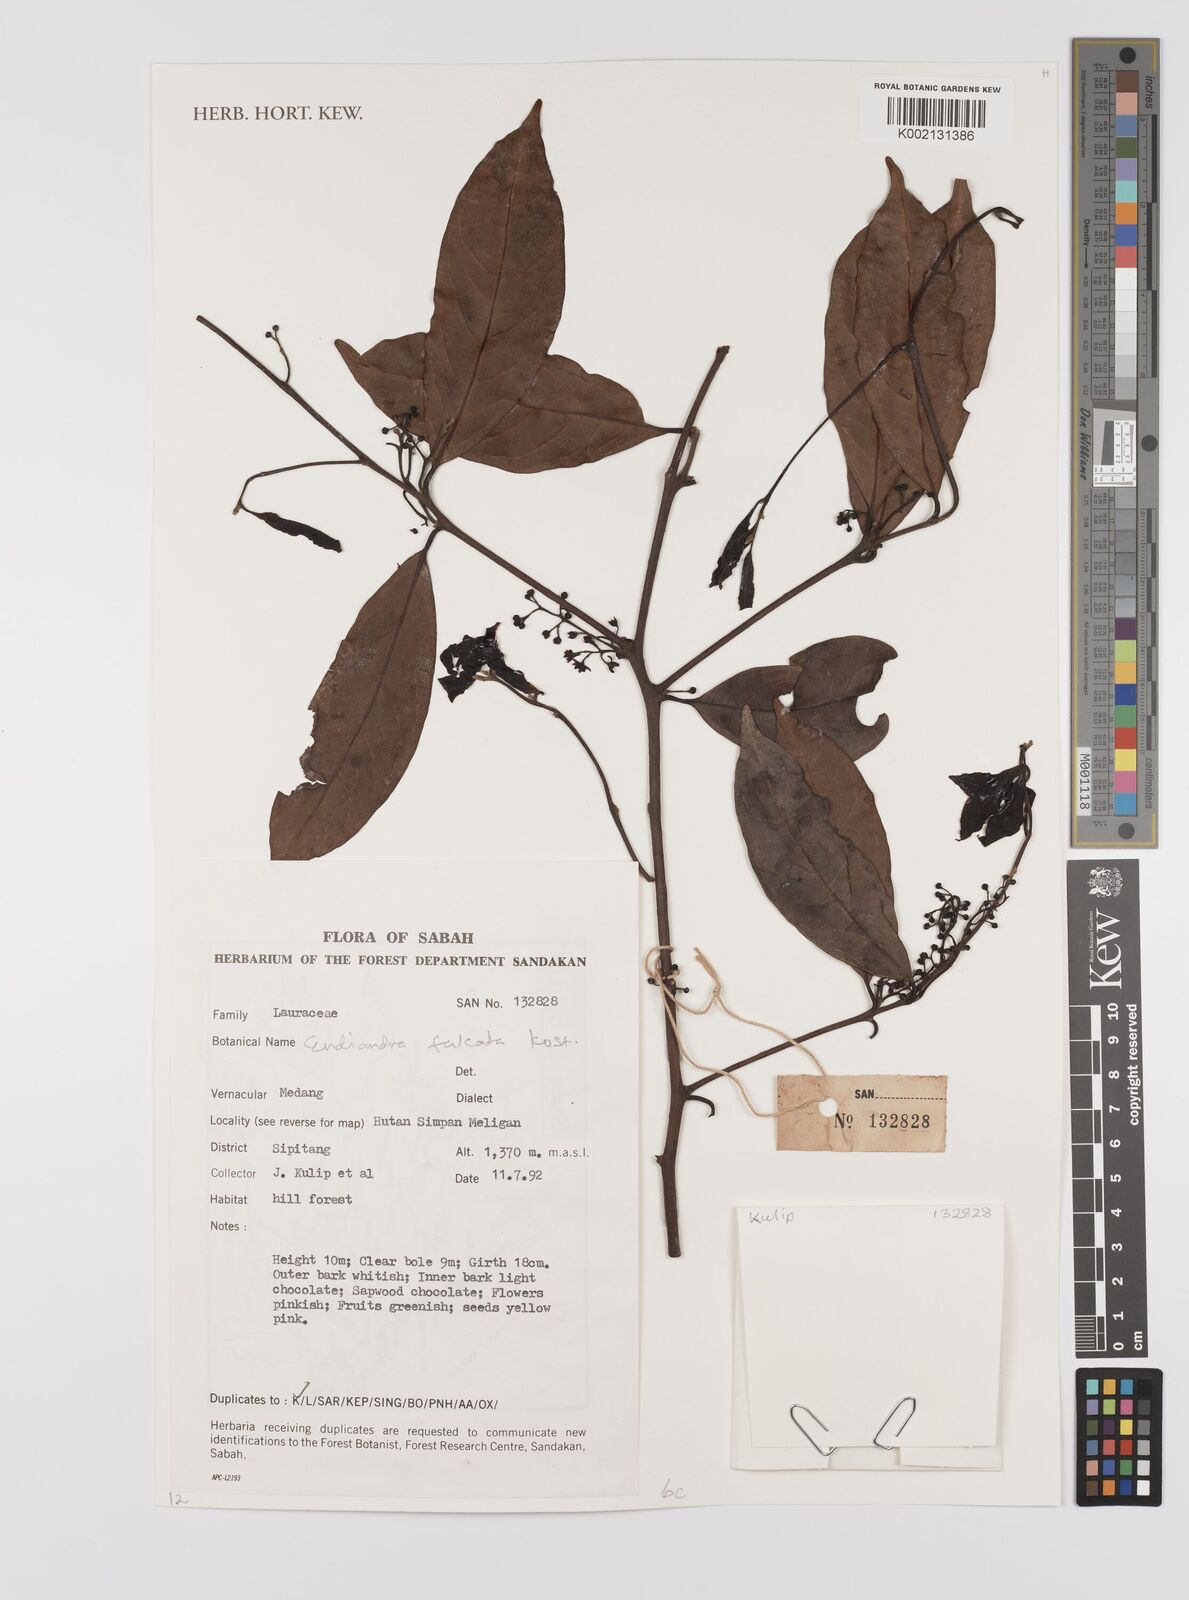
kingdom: Plantae
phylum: Tracheophyta
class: Magnoliopsida
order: Laurales
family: Lauraceae
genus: Endiandra
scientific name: Endiandra
